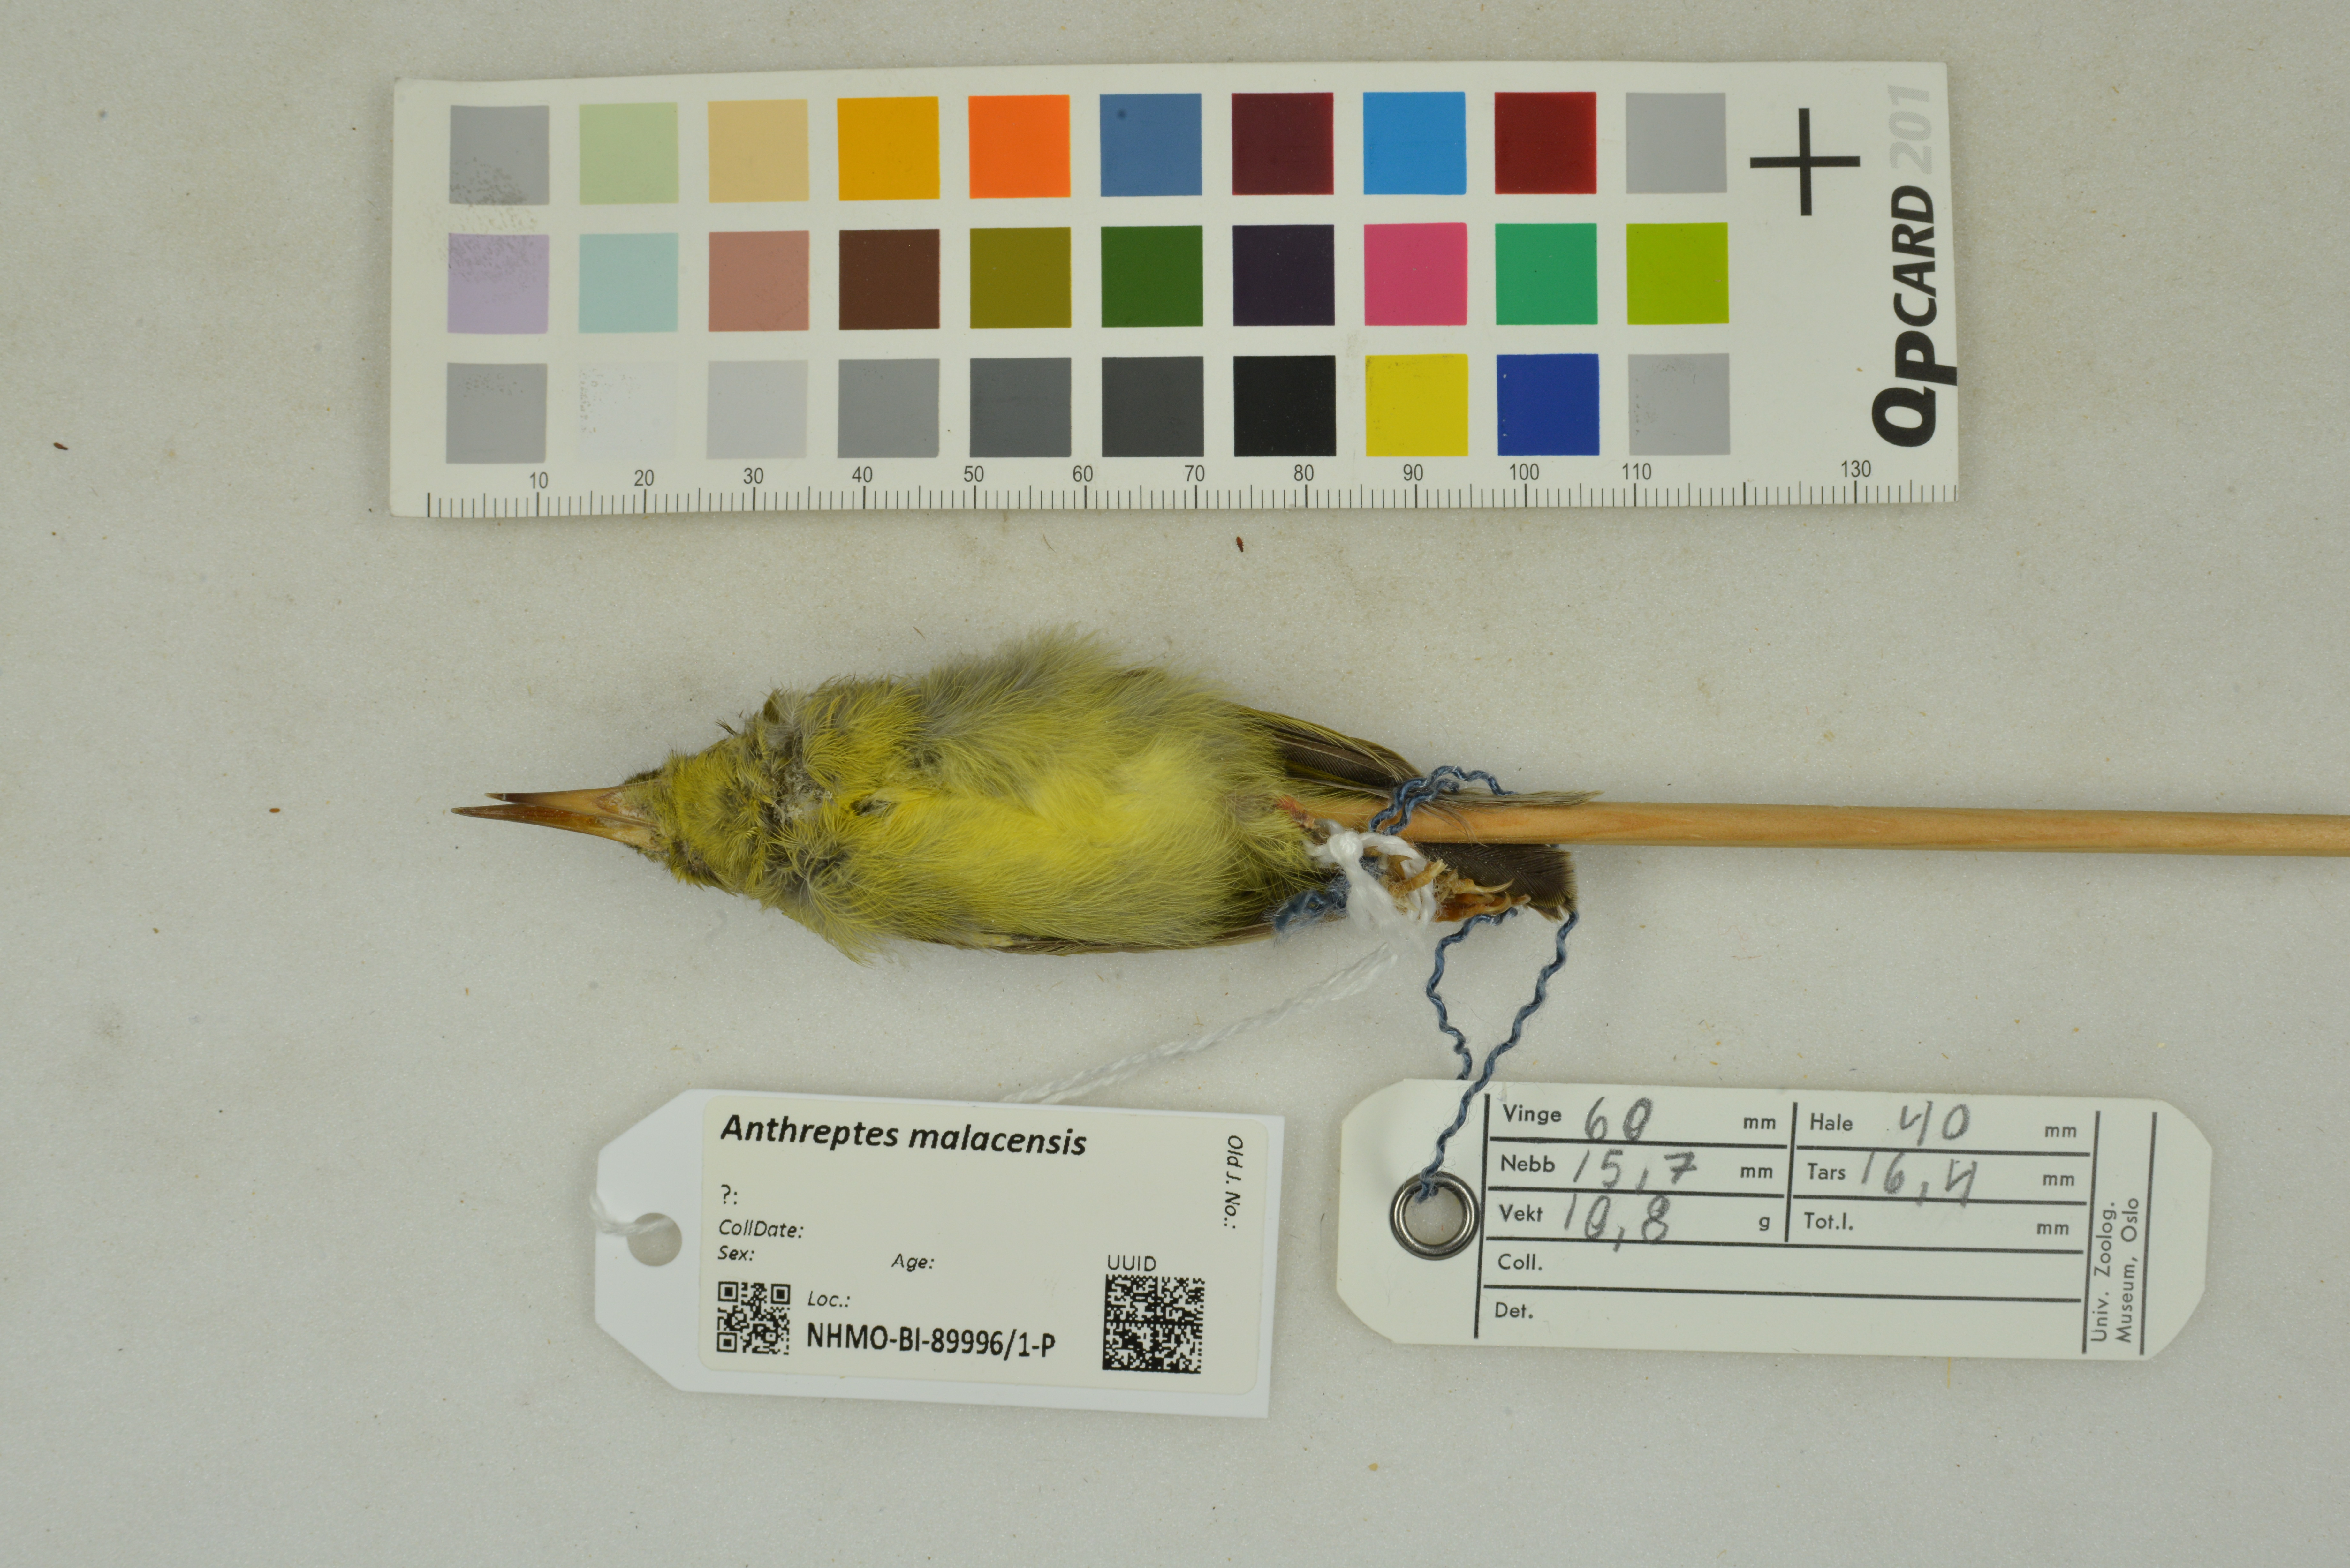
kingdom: Animalia
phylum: Chordata
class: Aves
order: Passeriformes
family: Nectariniidae
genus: Anthreptes
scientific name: Anthreptes malacensis
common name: Brown-throated sunbird
